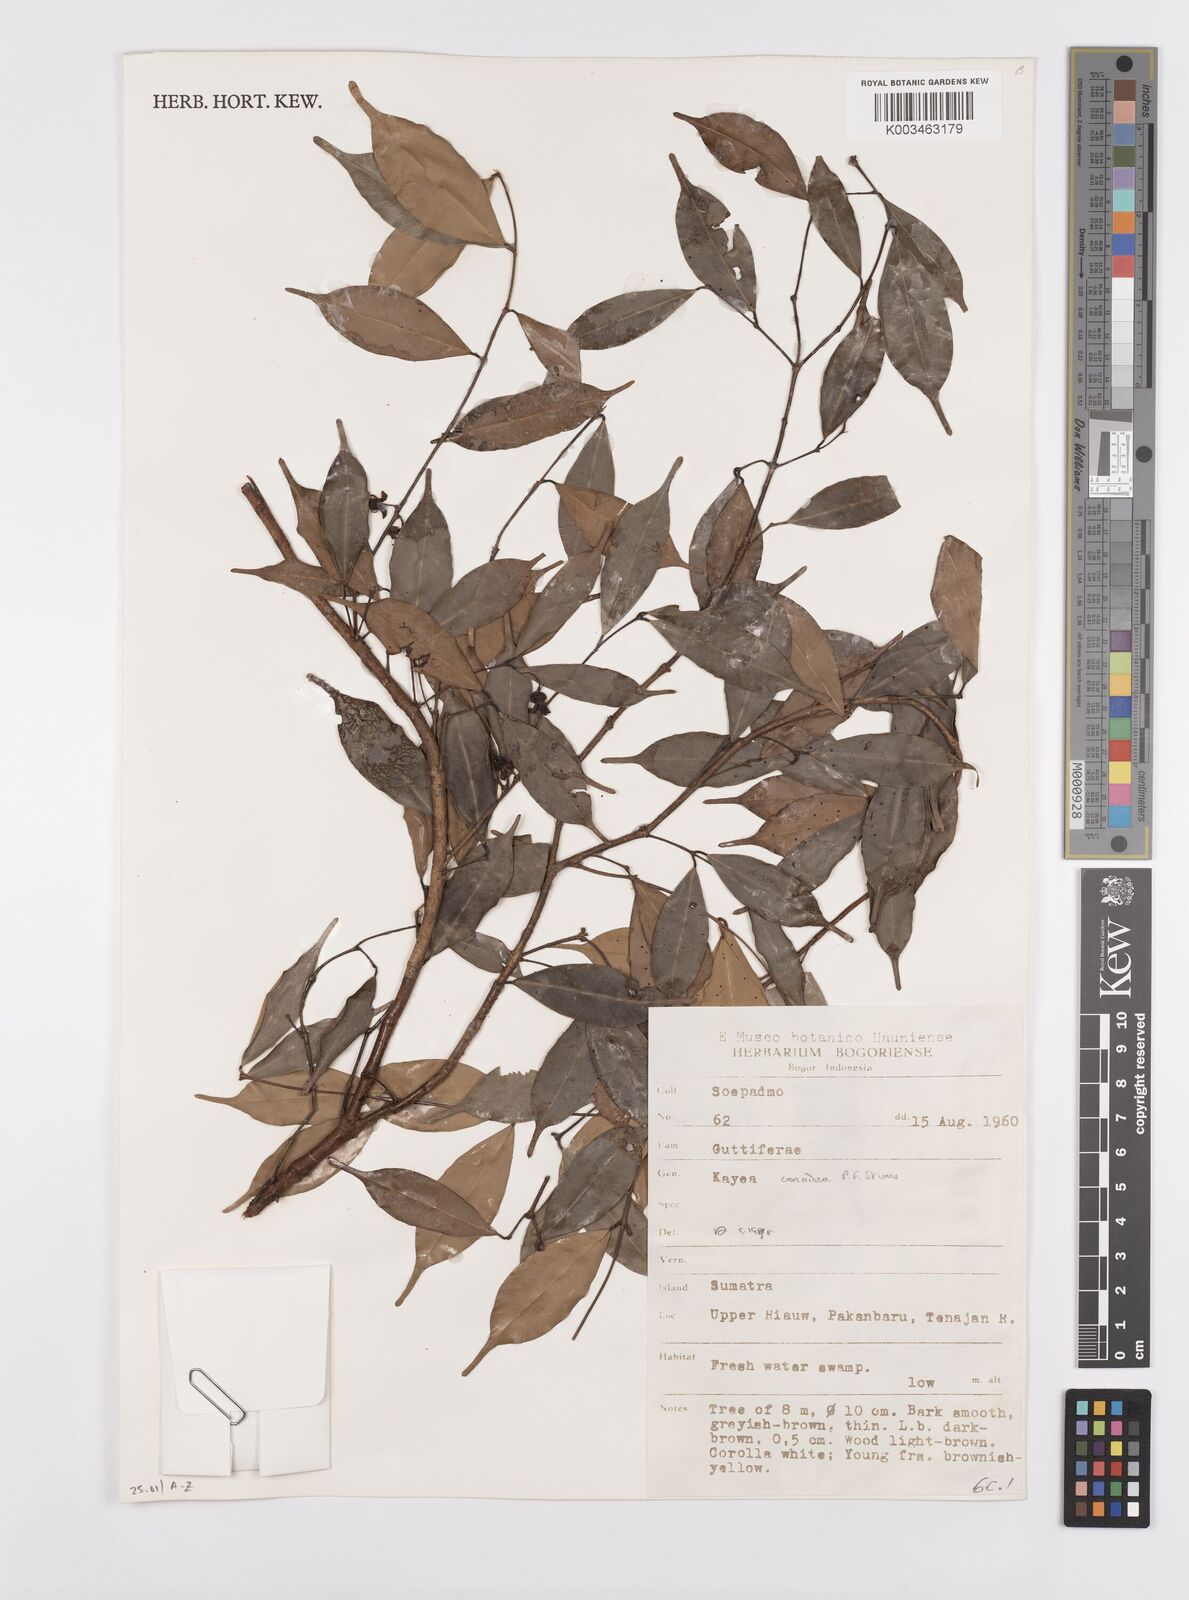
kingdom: Plantae
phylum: Tracheophyta
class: Magnoliopsida
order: Malpighiales
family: Calophyllaceae
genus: Kayea
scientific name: Kayea
